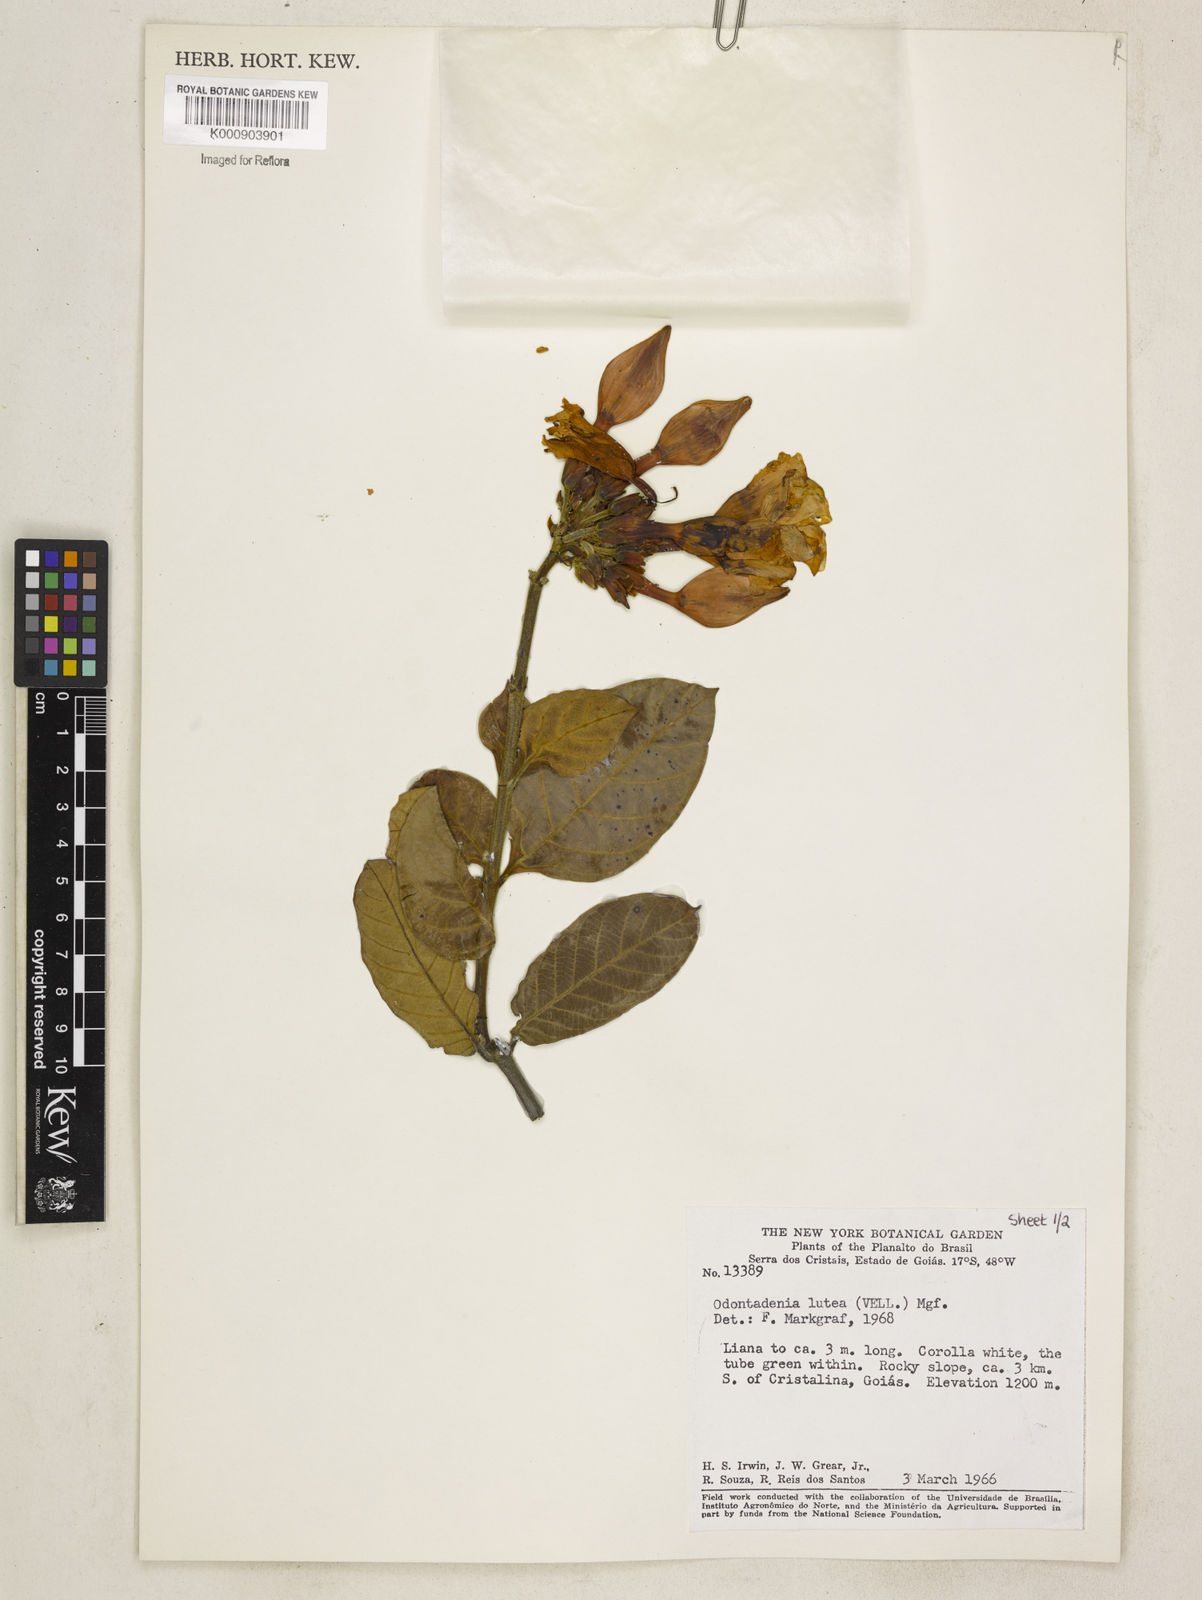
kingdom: Plantae
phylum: Tracheophyta
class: Magnoliopsida
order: Gentianales
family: Apocynaceae
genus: Odontadenia
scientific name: Odontadenia lutea
